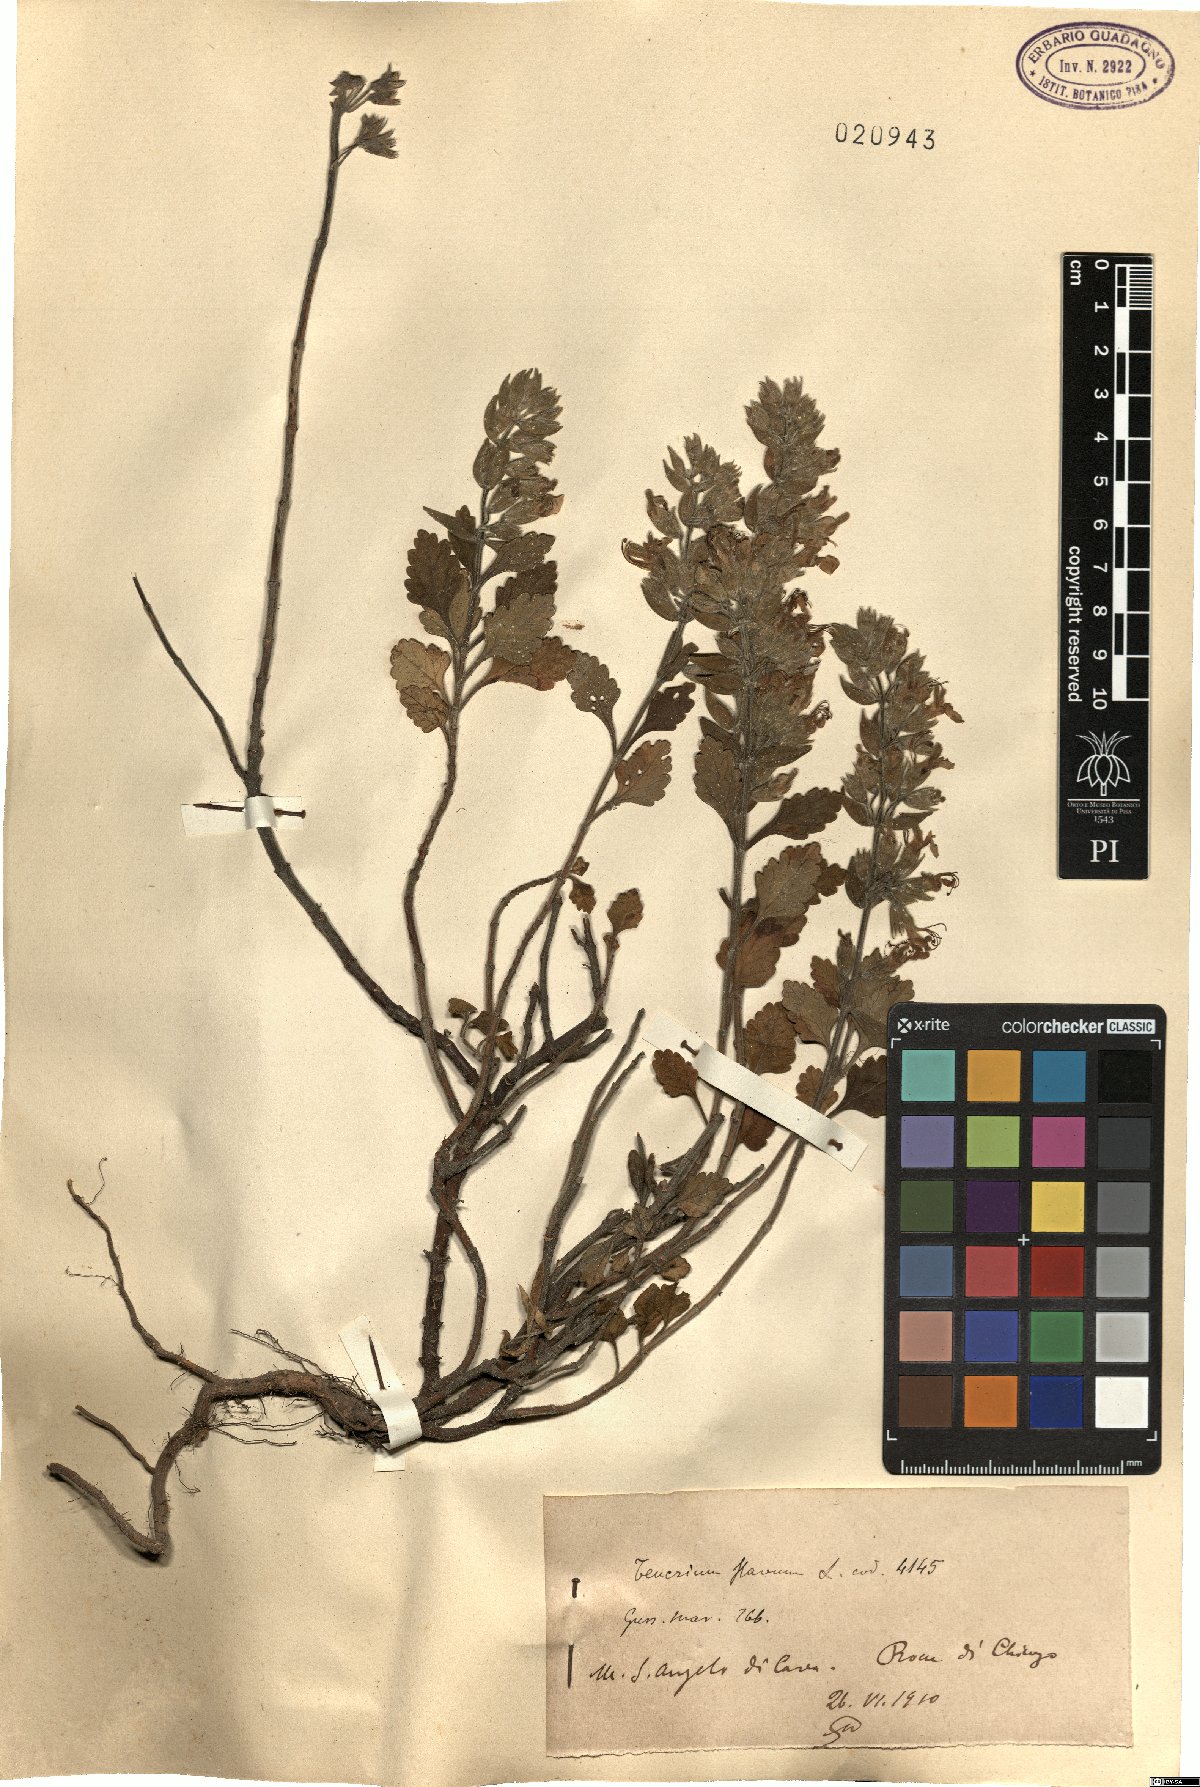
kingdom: Plantae
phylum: Tracheophyta
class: Magnoliopsida
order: Lamiales
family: Lamiaceae
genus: Teucrium
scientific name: Teucrium flavum
